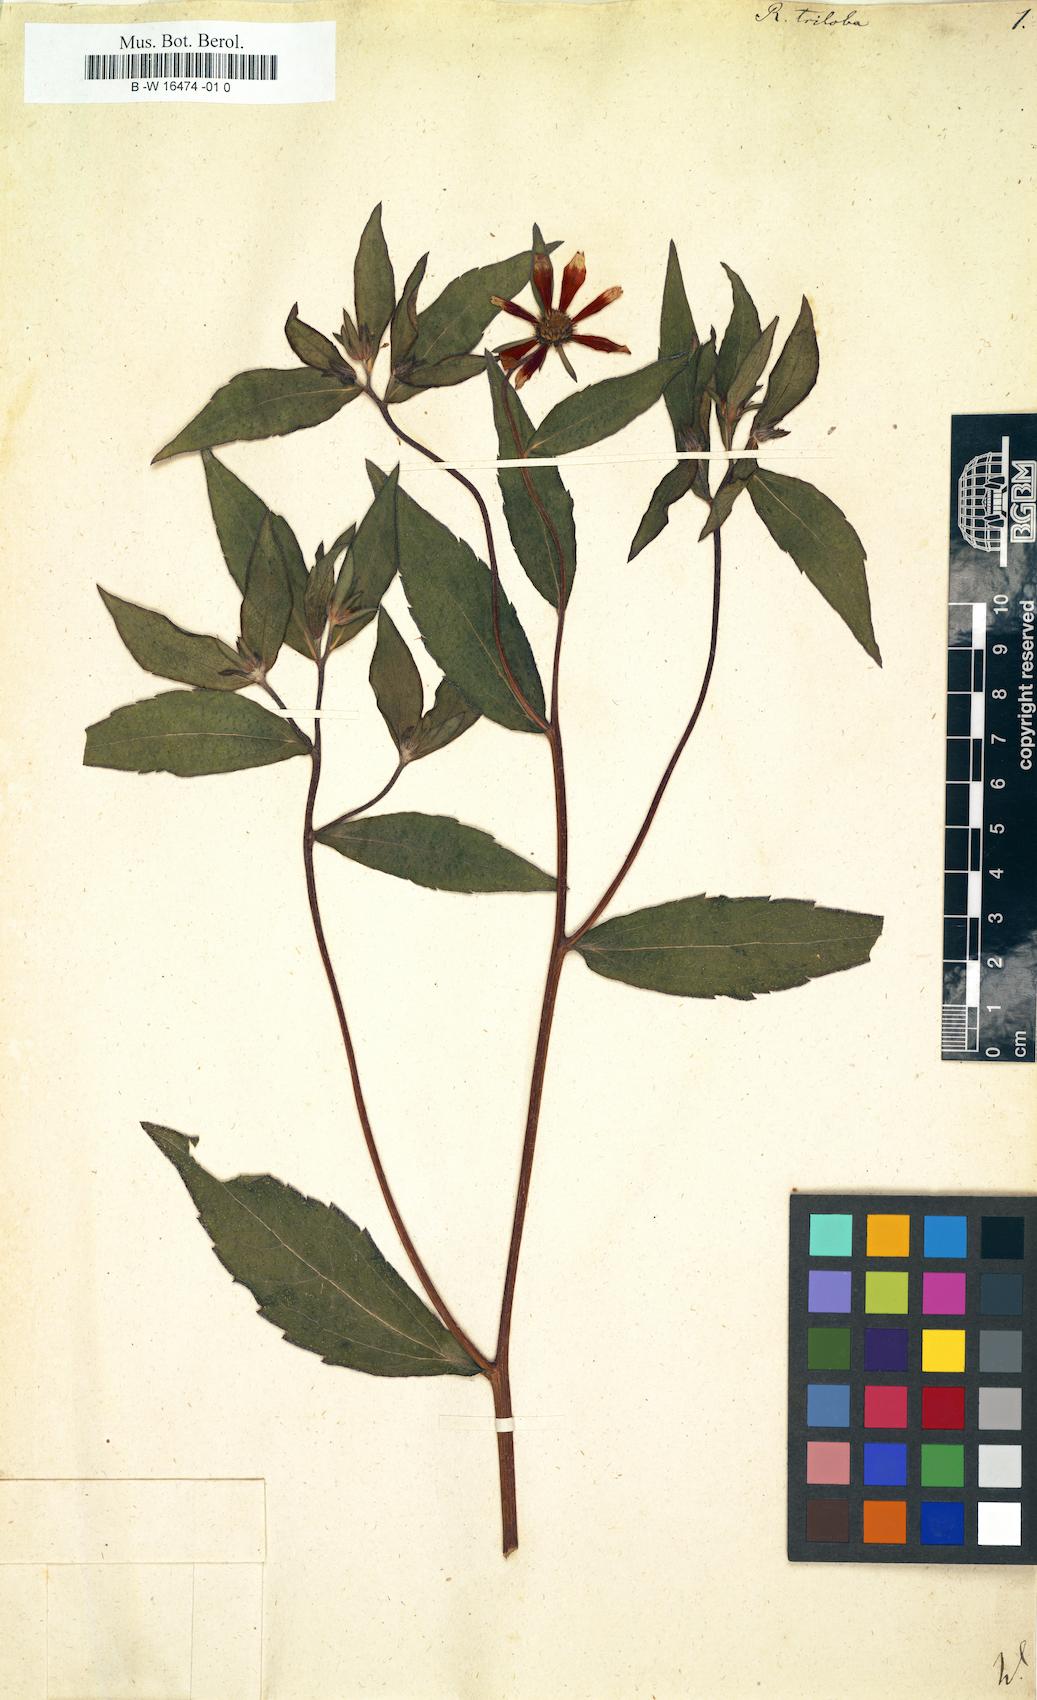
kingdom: Plantae
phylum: Tracheophyta
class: Magnoliopsida
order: Asterales
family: Asteraceae
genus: Rudbeckia
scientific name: Rudbeckia triloba
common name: Thin-leaved coneflower
